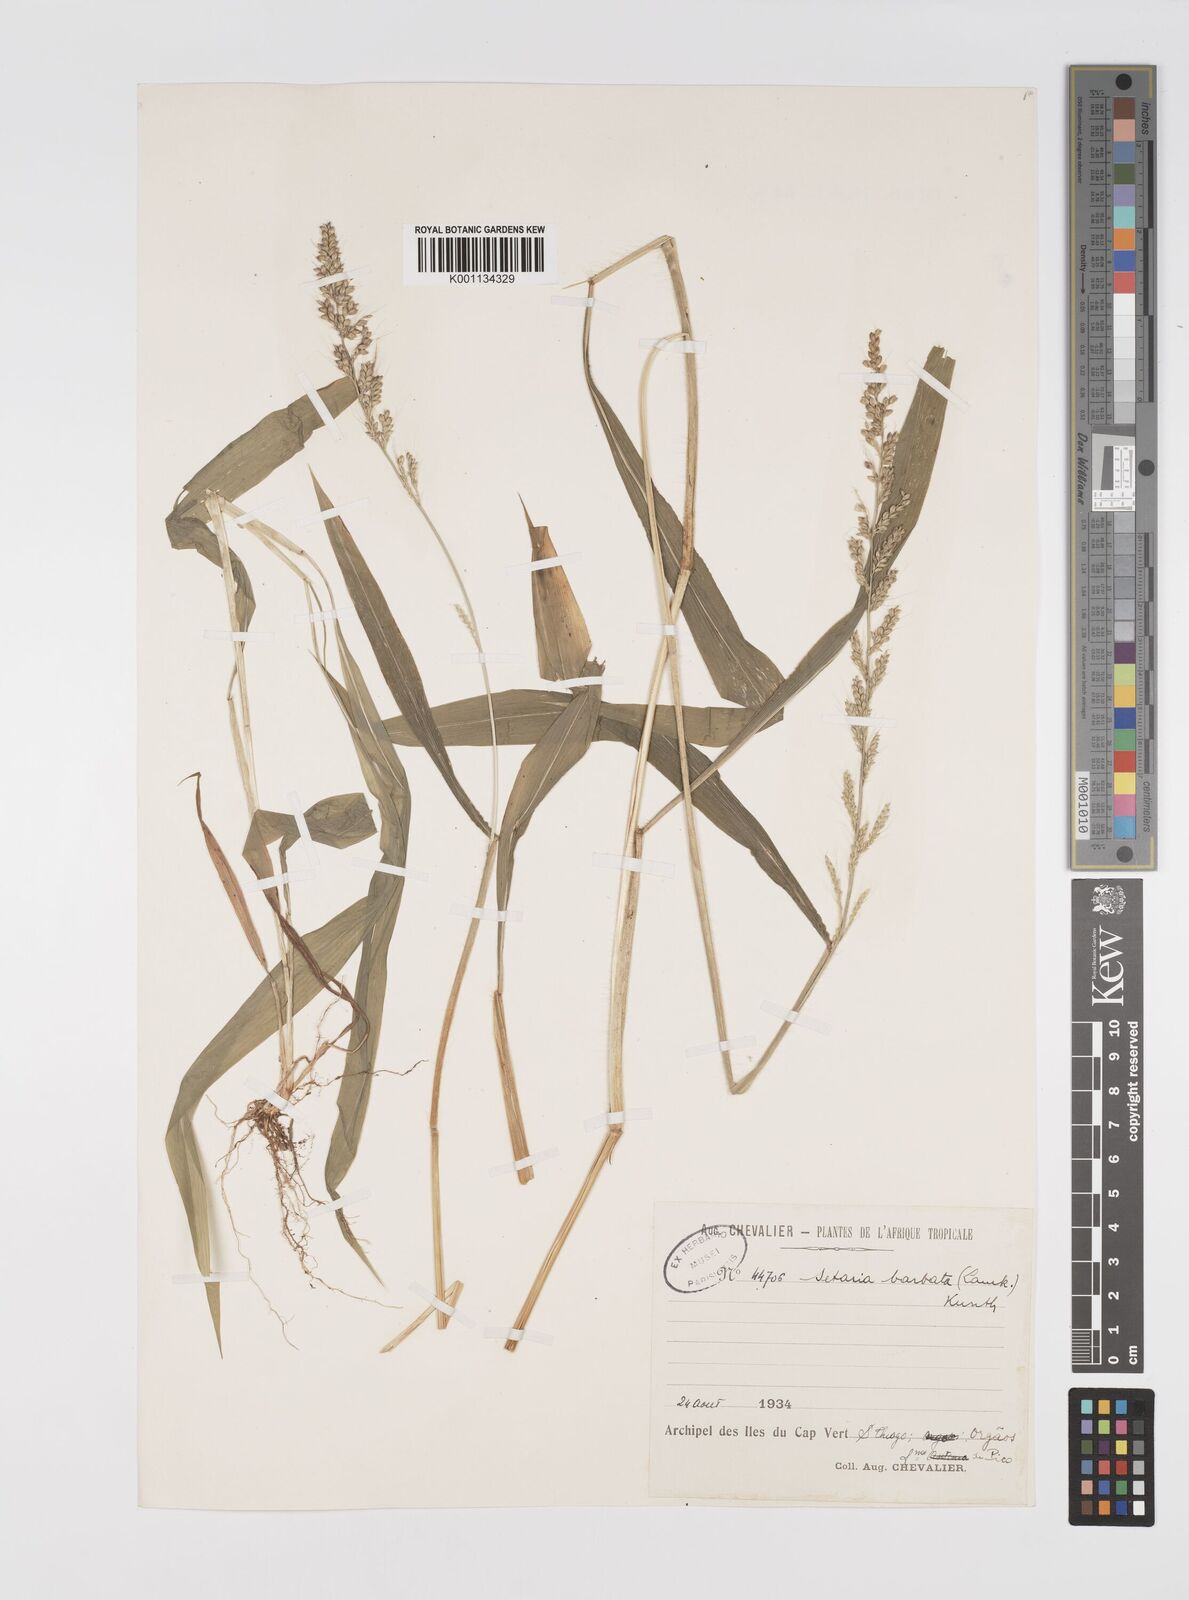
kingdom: Plantae
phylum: Tracheophyta
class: Liliopsida
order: Poales
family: Poaceae
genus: Setaria
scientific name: Setaria barbata
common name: East indian bristlegrass
